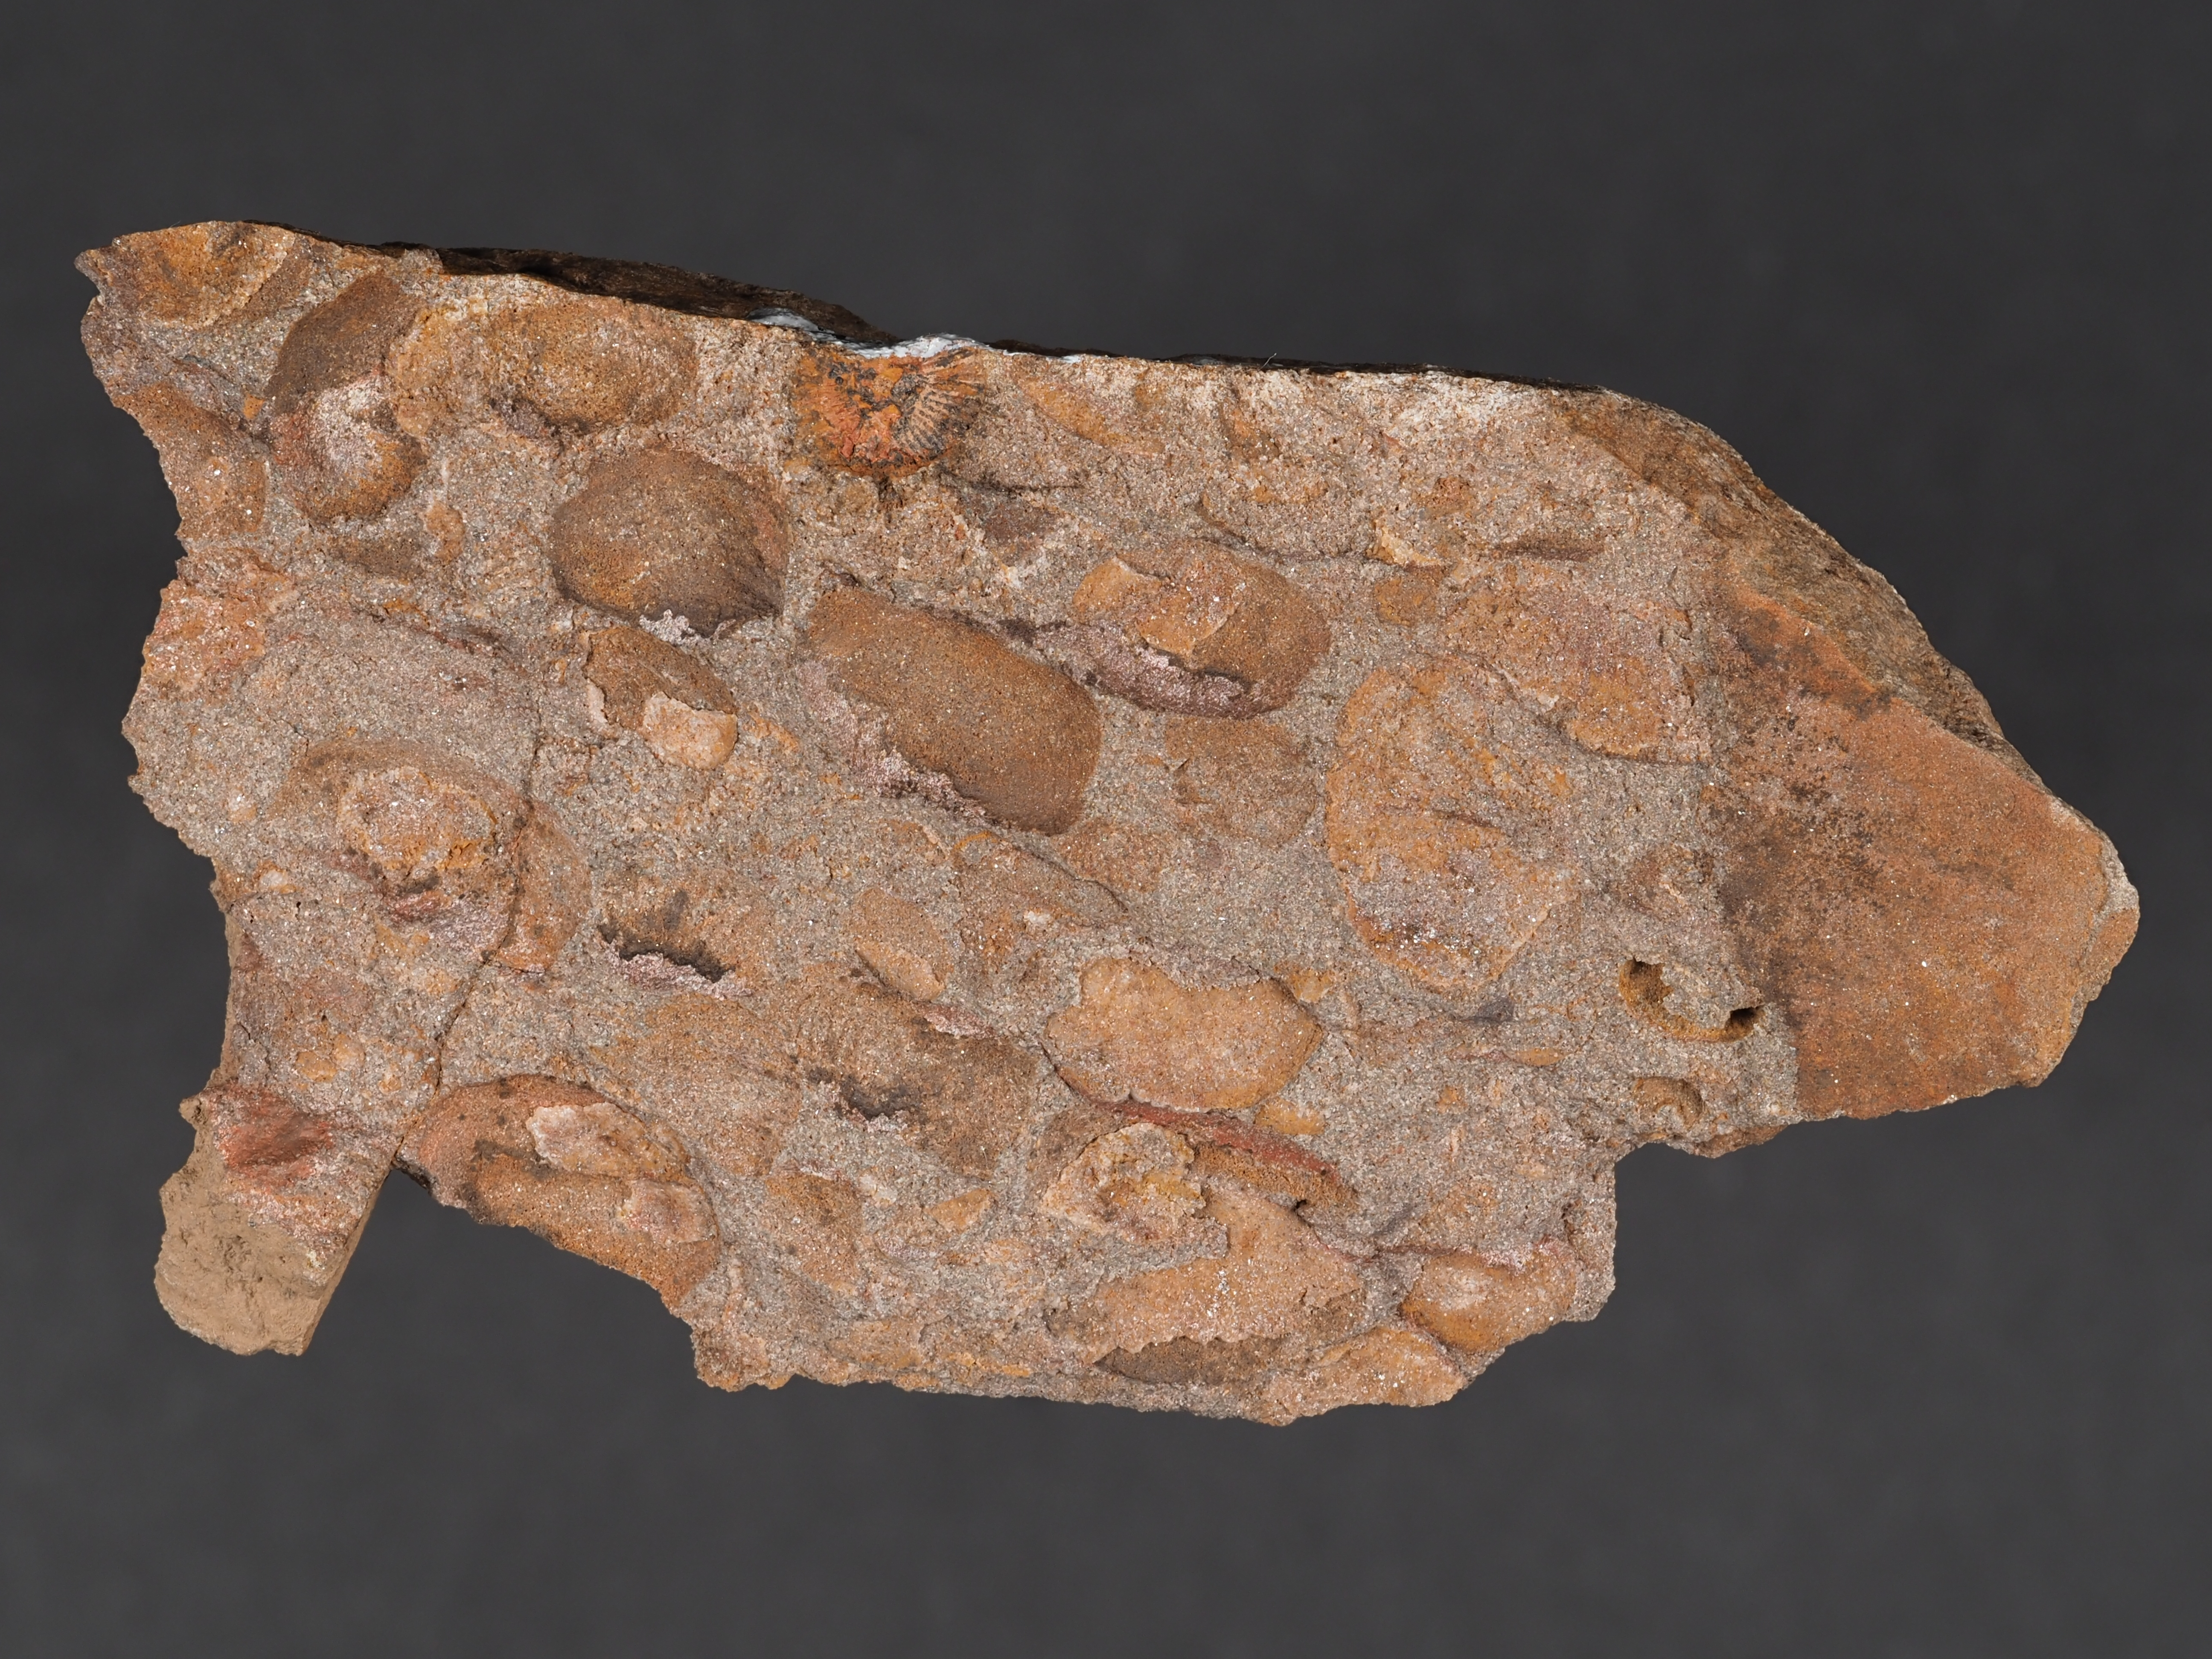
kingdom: Animalia
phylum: Brachiopoda
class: Rhynchonellata
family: Anoplothecidae
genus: Anoplotheca
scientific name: Anoplotheca
